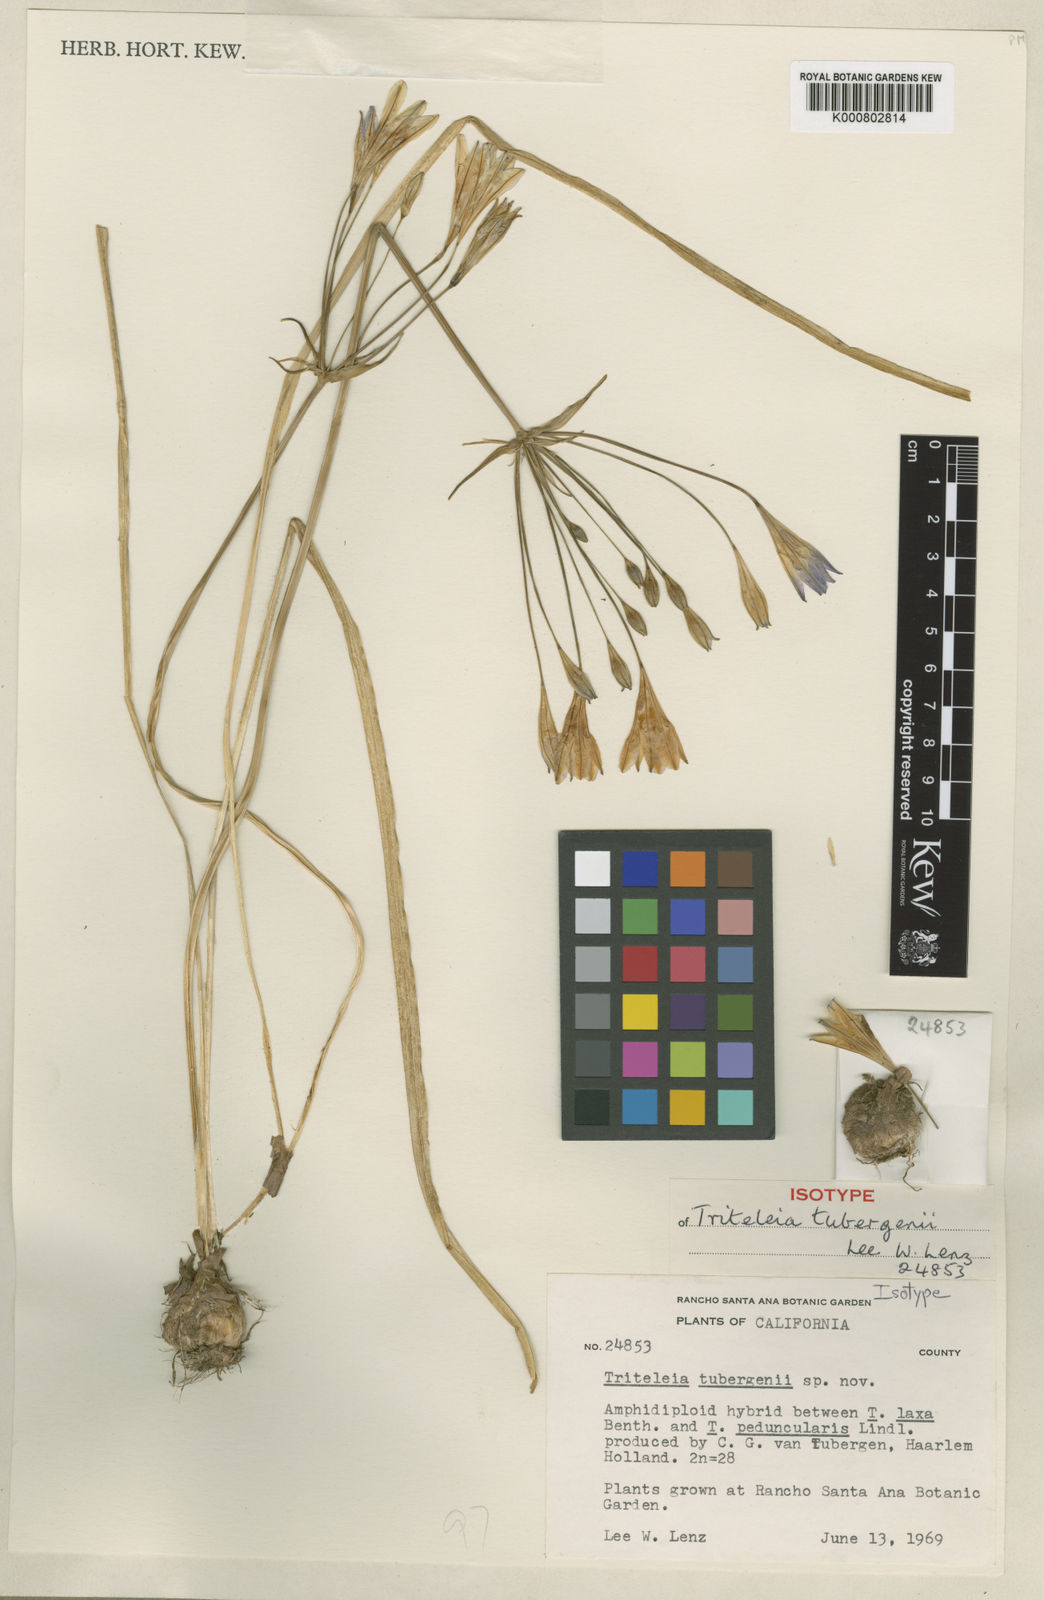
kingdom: Plantae
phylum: Tracheophyta
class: Liliopsida
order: Asparagales
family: Asparagaceae
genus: Triteleia
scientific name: Triteleia tubergenii
